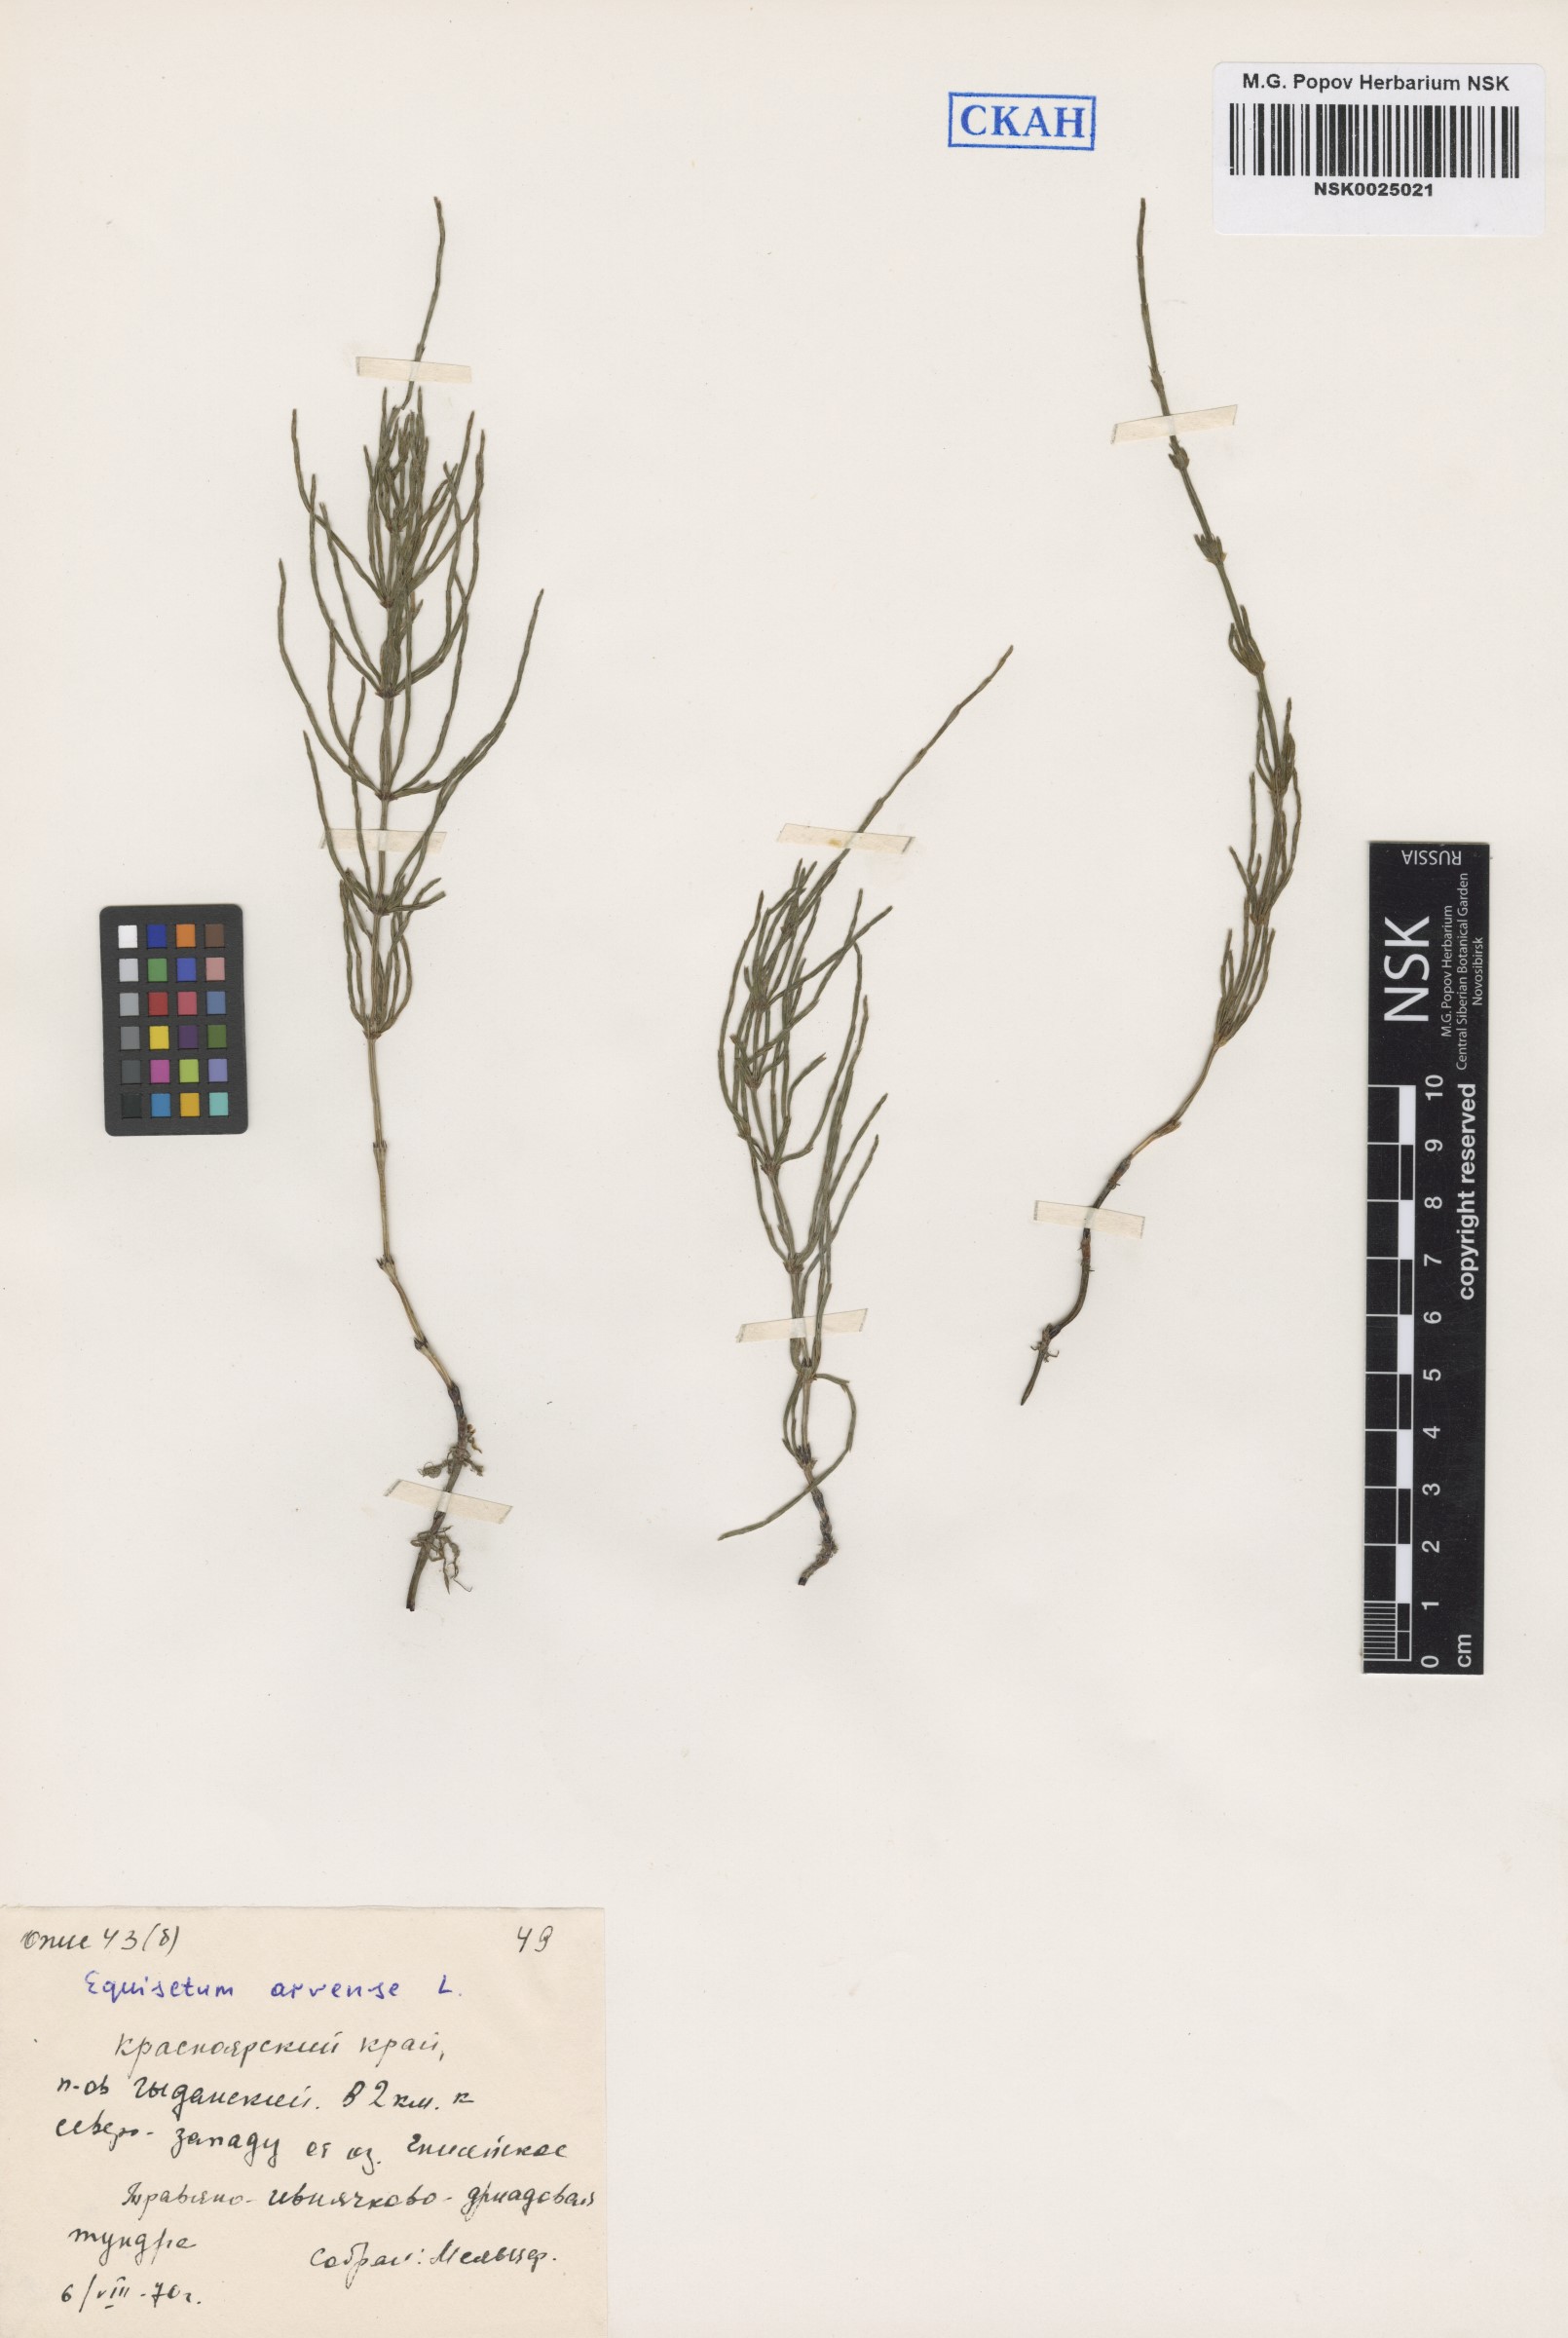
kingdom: Plantae
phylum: Tracheophyta
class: Polypodiopsida
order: Equisetales
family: Equisetaceae
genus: Equisetum
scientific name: Equisetum arvense
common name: Field horsetail
